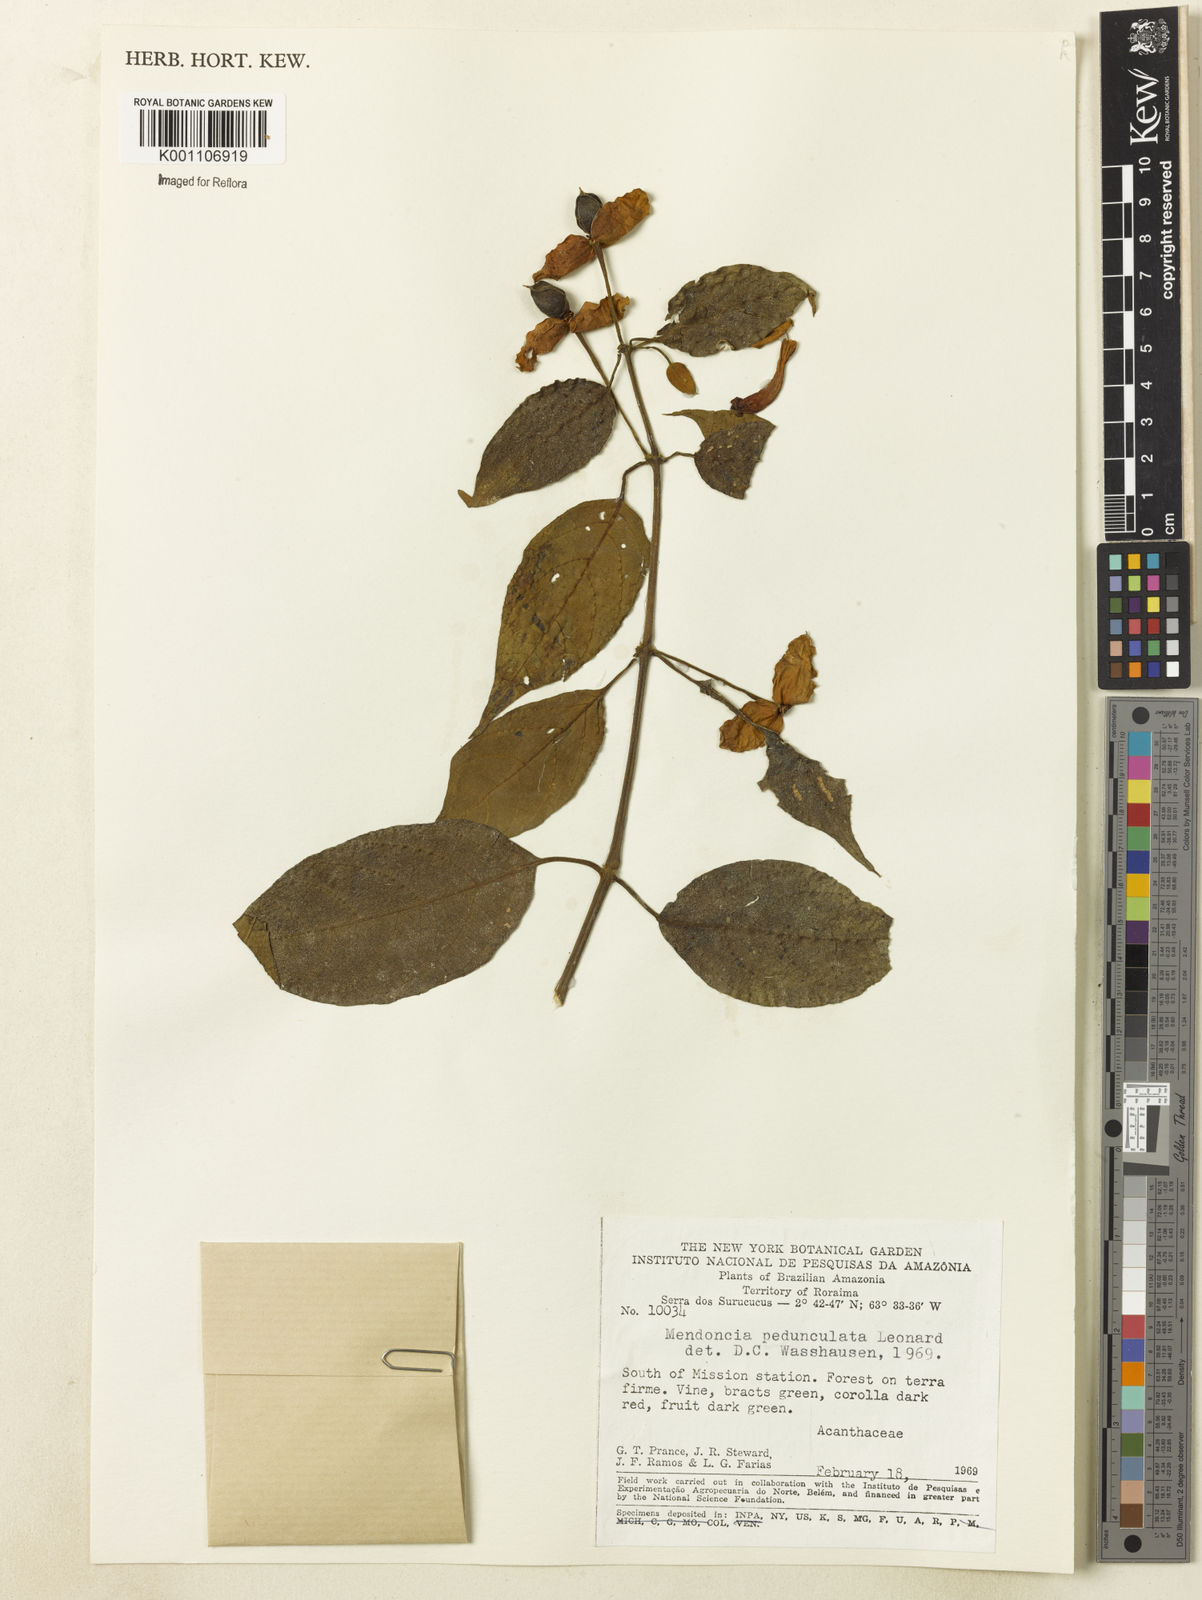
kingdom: Plantae
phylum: Tracheophyta
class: Magnoliopsida
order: Lamiales
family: Acanthaceae
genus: Mendoncia
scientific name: Mendoncia pedunculata
